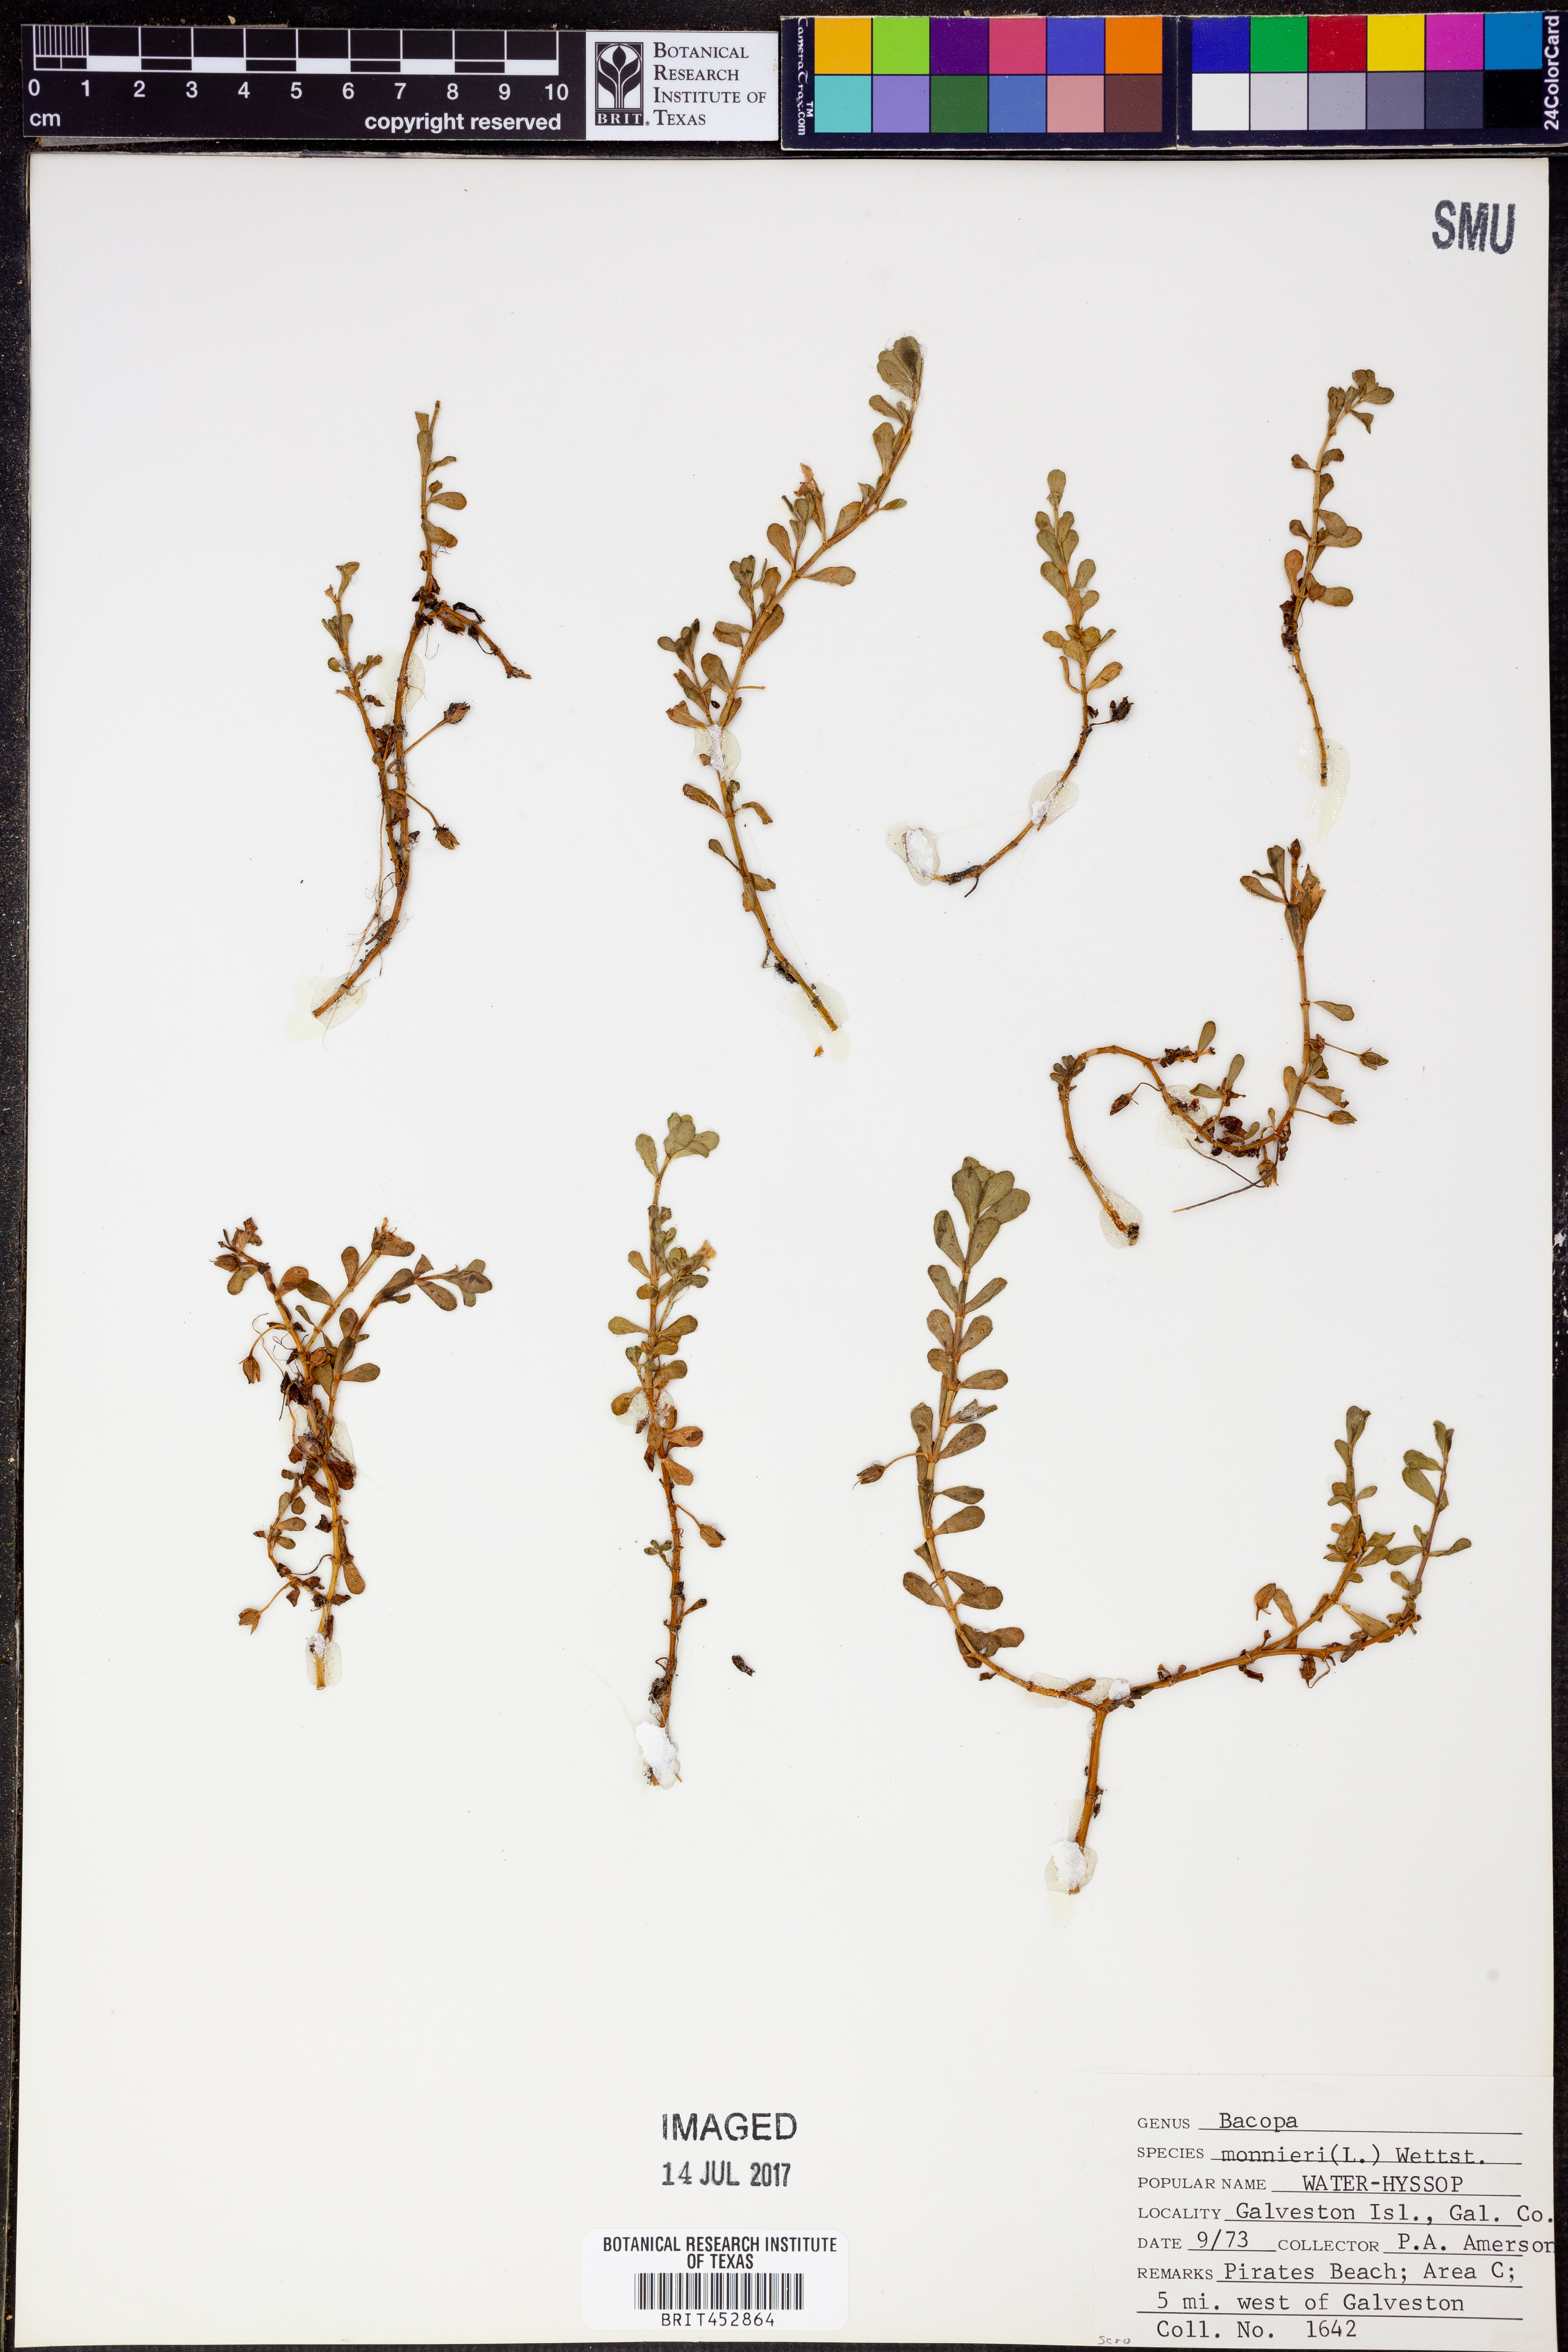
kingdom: Plantae
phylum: Tracheophyta
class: Magnoliopsida
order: Lamiales
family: Plantaginaceae
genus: Bacopa
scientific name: Bacopa monnieri
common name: Indian-pennywort
